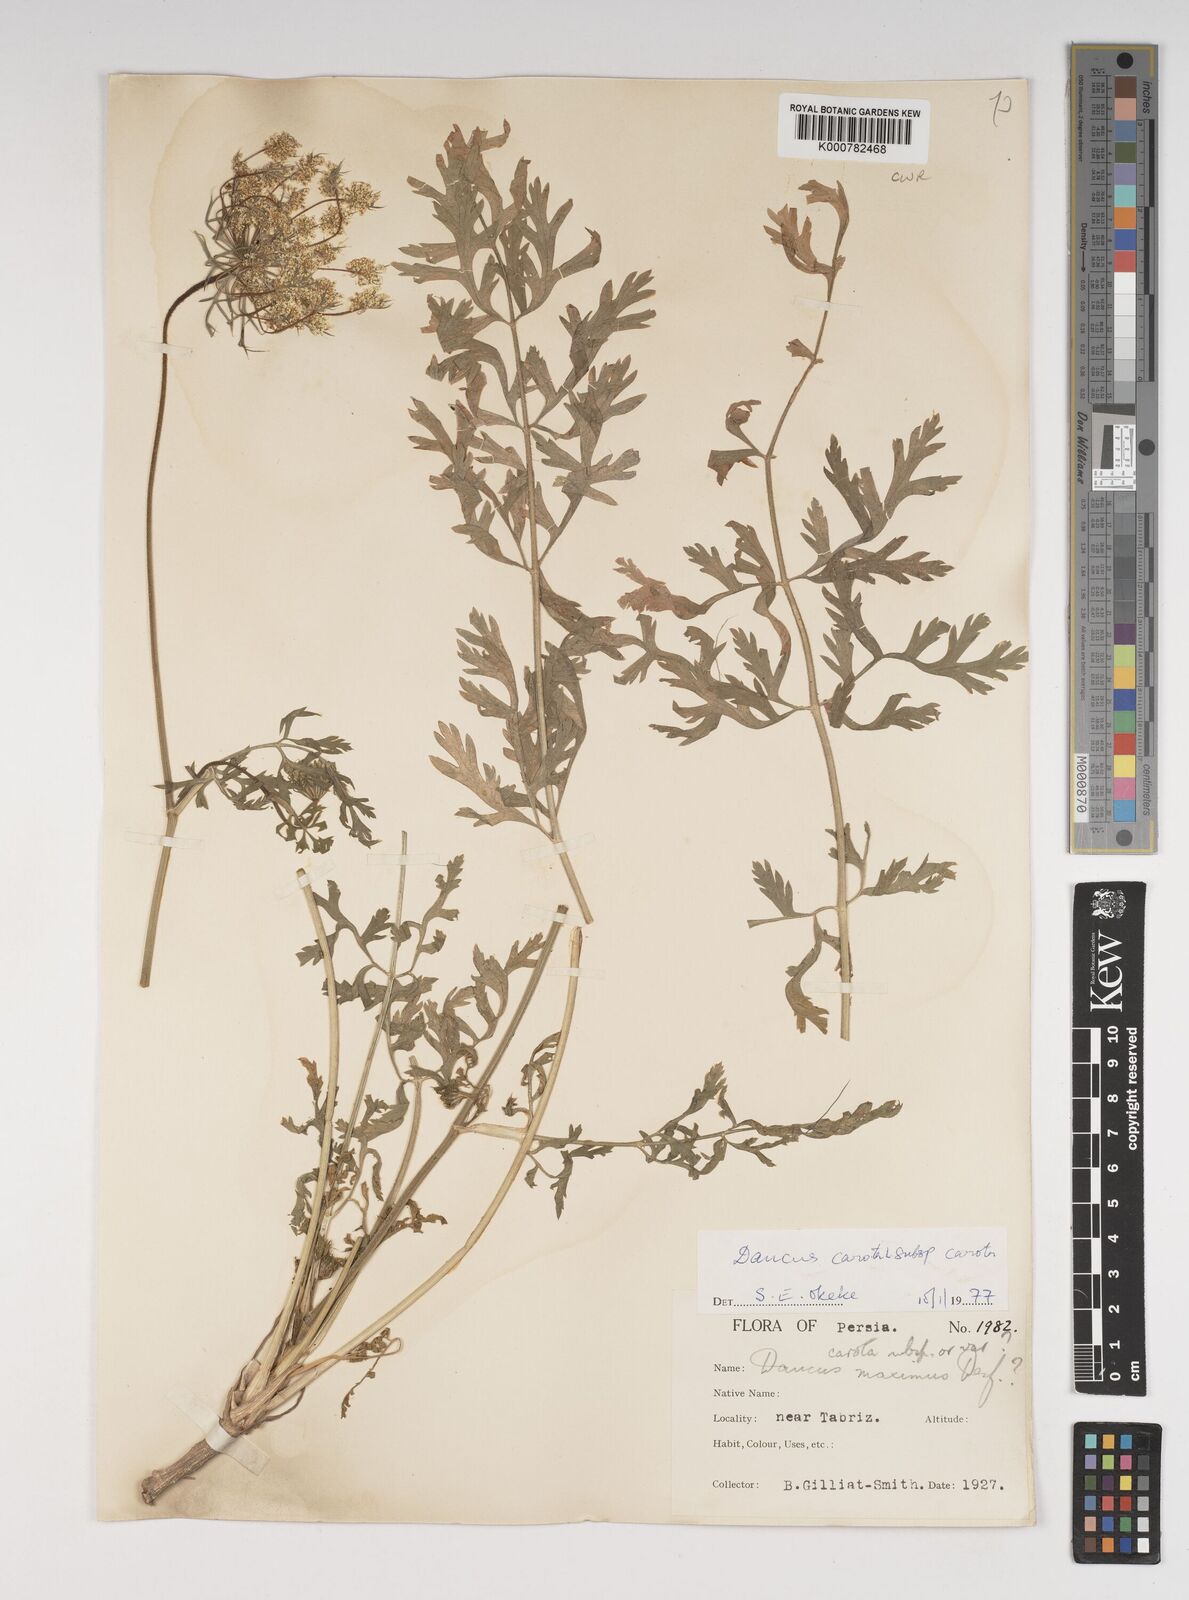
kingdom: Plantae
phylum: Tracheophyta
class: Magnoliopsida
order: Apiales
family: Apiaceae
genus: Daucus
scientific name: Daucus carota
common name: Wild carrot
